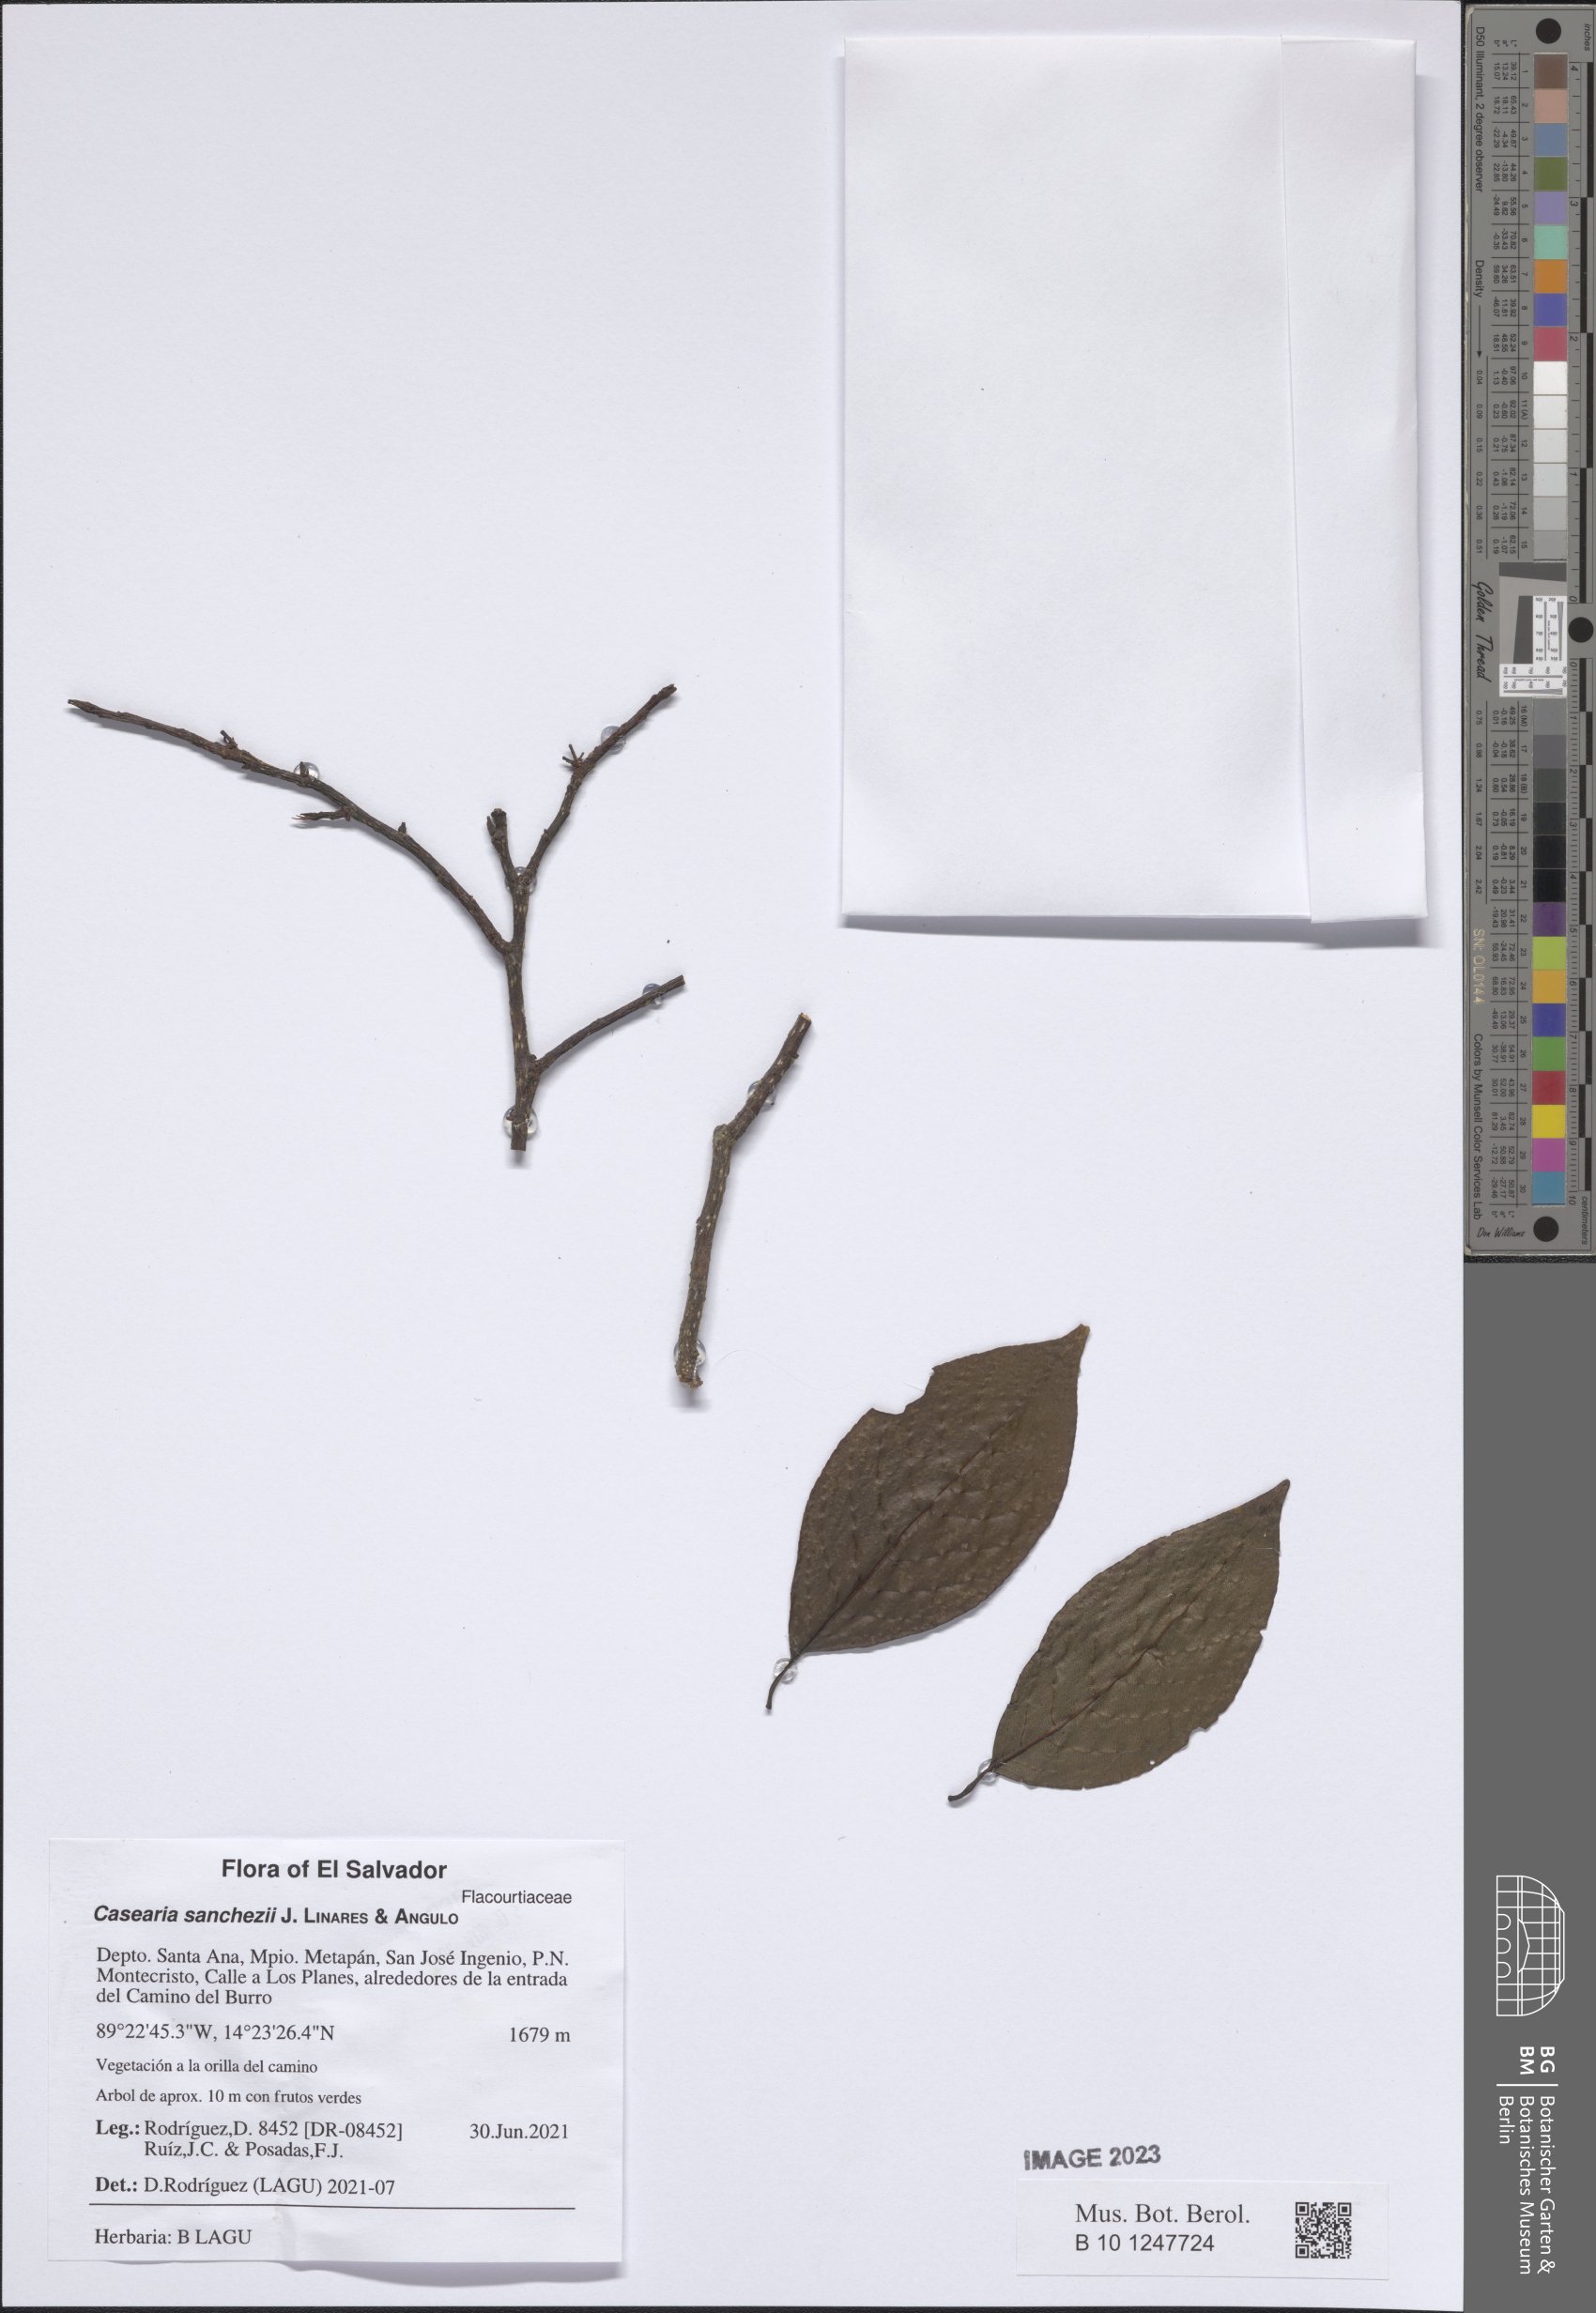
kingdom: Plantae
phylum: Tracheophyta
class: Magnoliopsida
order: Malpighiales
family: Salicaceae
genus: Casearia
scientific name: Casearia sanchezii
